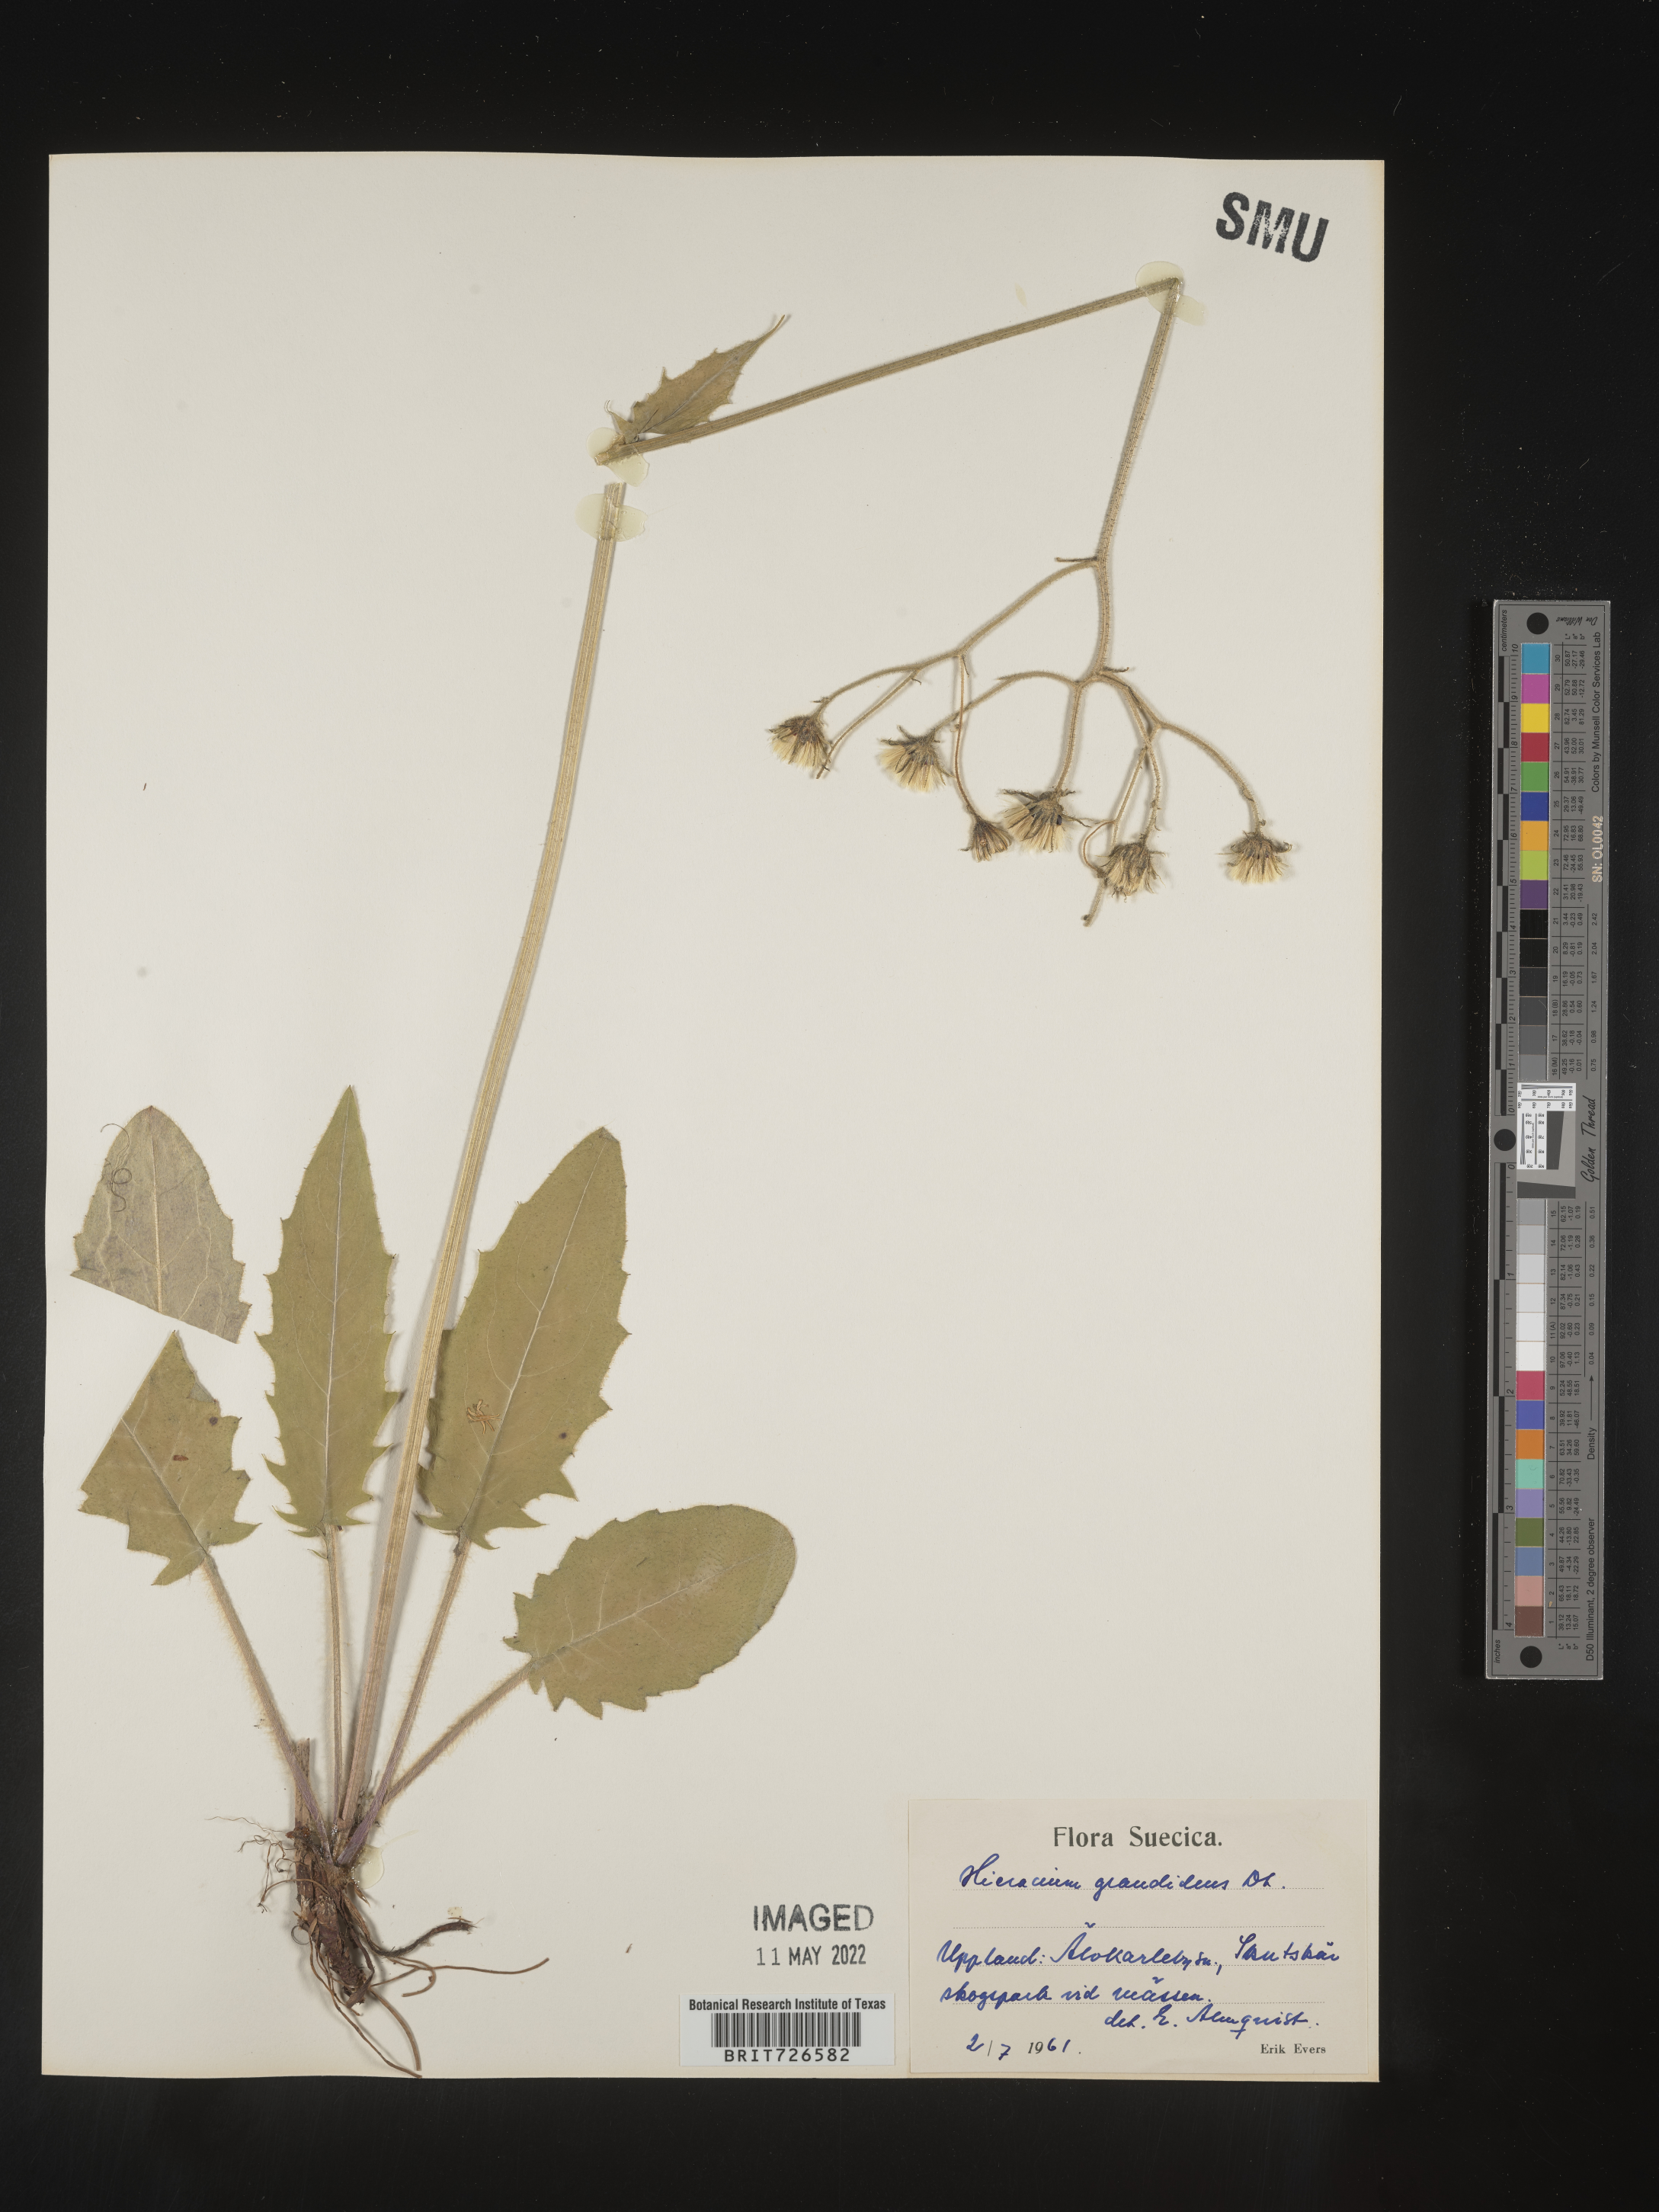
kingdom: Plantae
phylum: Tracheophyta
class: Magnoliopsida
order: Asterales
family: Asteraceae
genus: Hieracium
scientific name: Hieracium
